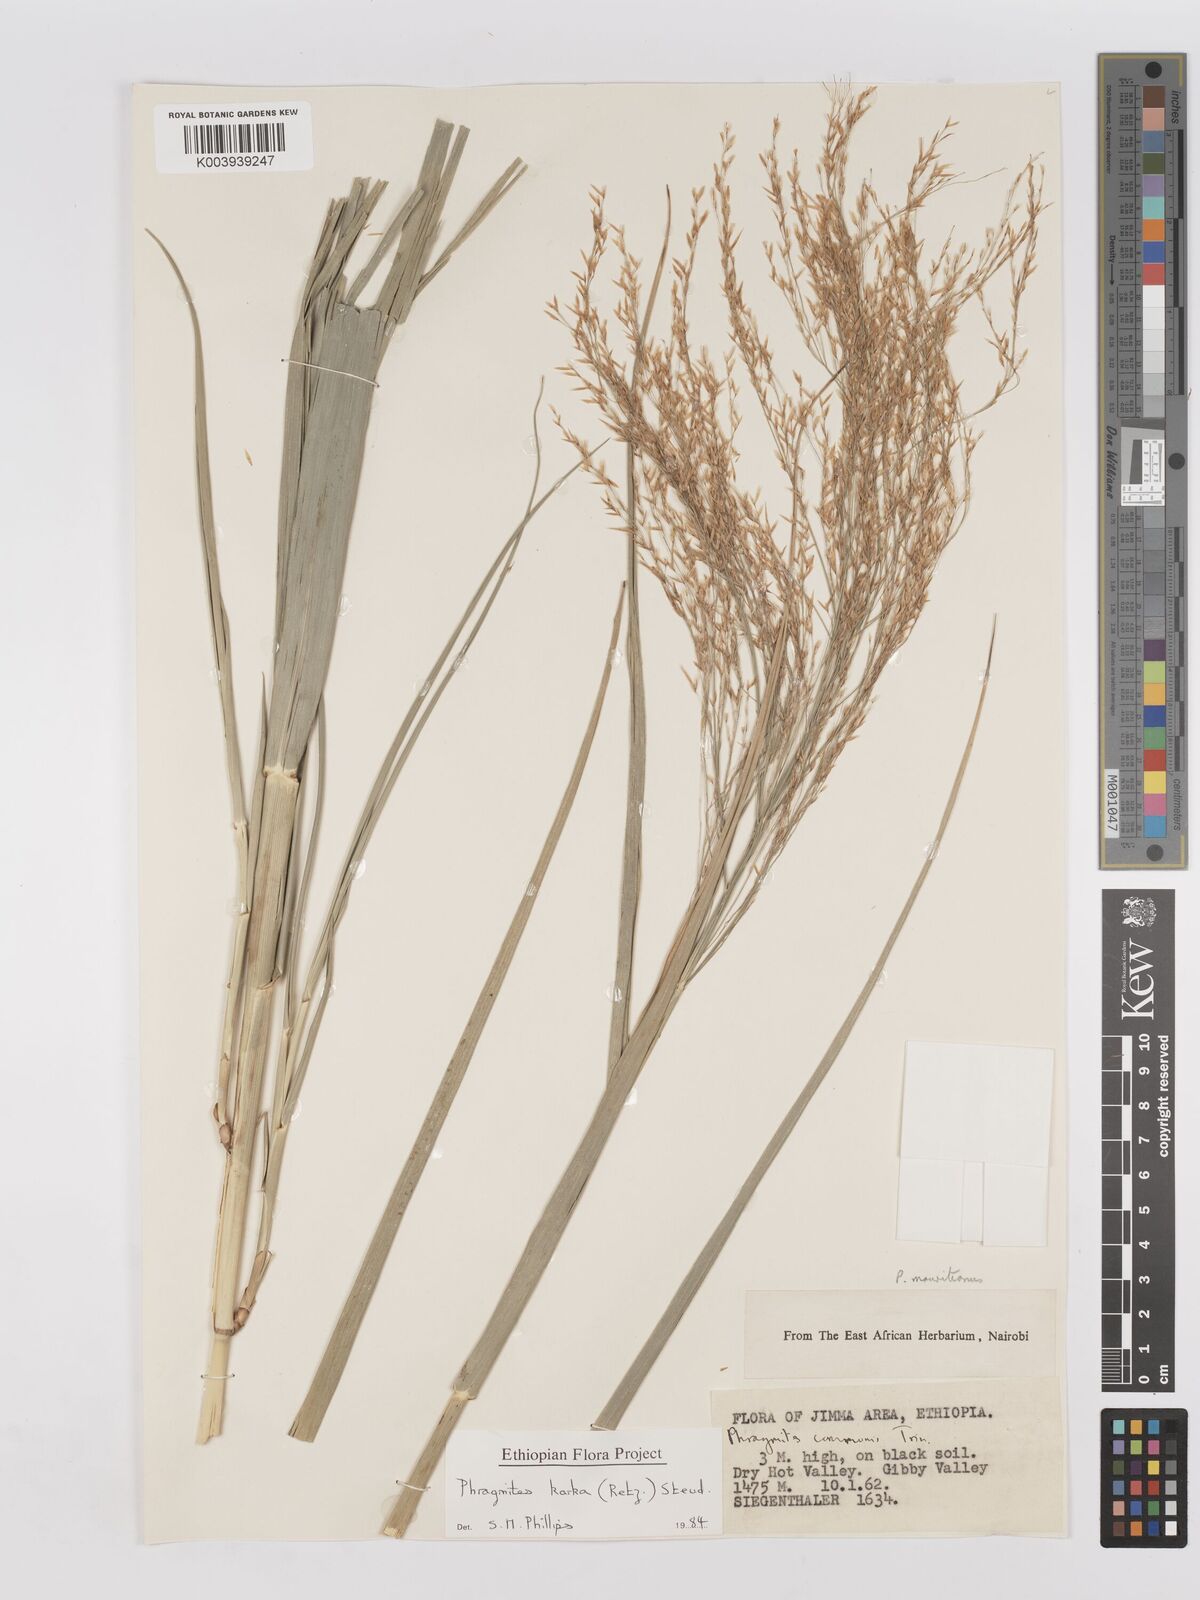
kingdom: Plantae
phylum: Tracheophyta
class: Liliopsida
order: Poales
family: Poaceae
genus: Phragmites
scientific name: Phragmites karka
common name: Tropical reed
